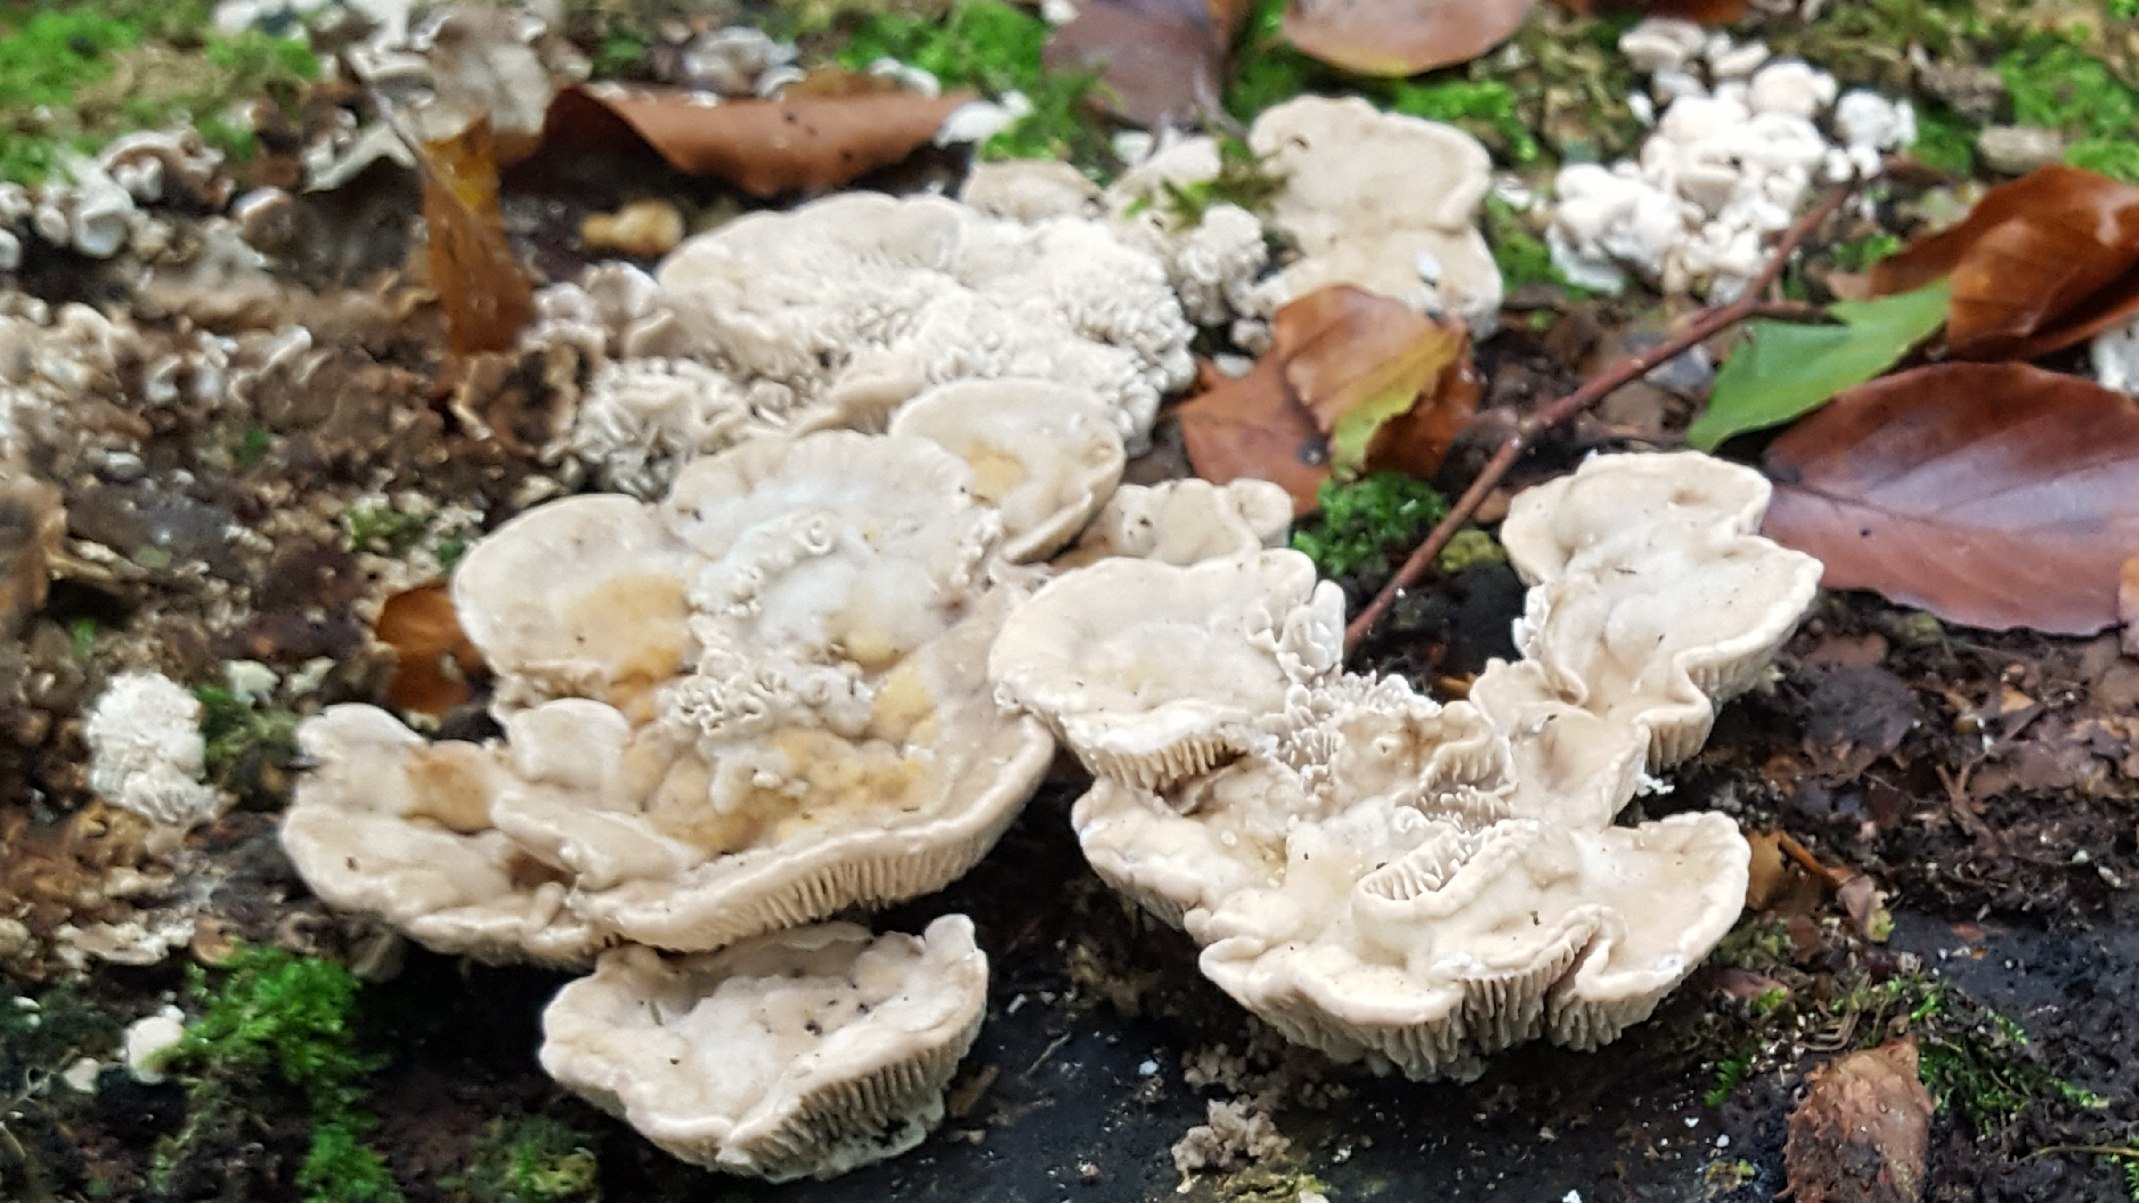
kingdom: Fungi
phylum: Basidiomycota
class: Agaricomycetes
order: Polyporales
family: Polyporaceae
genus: Lenzites
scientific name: Lenzites betulinus
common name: birke-læderporesvamp
